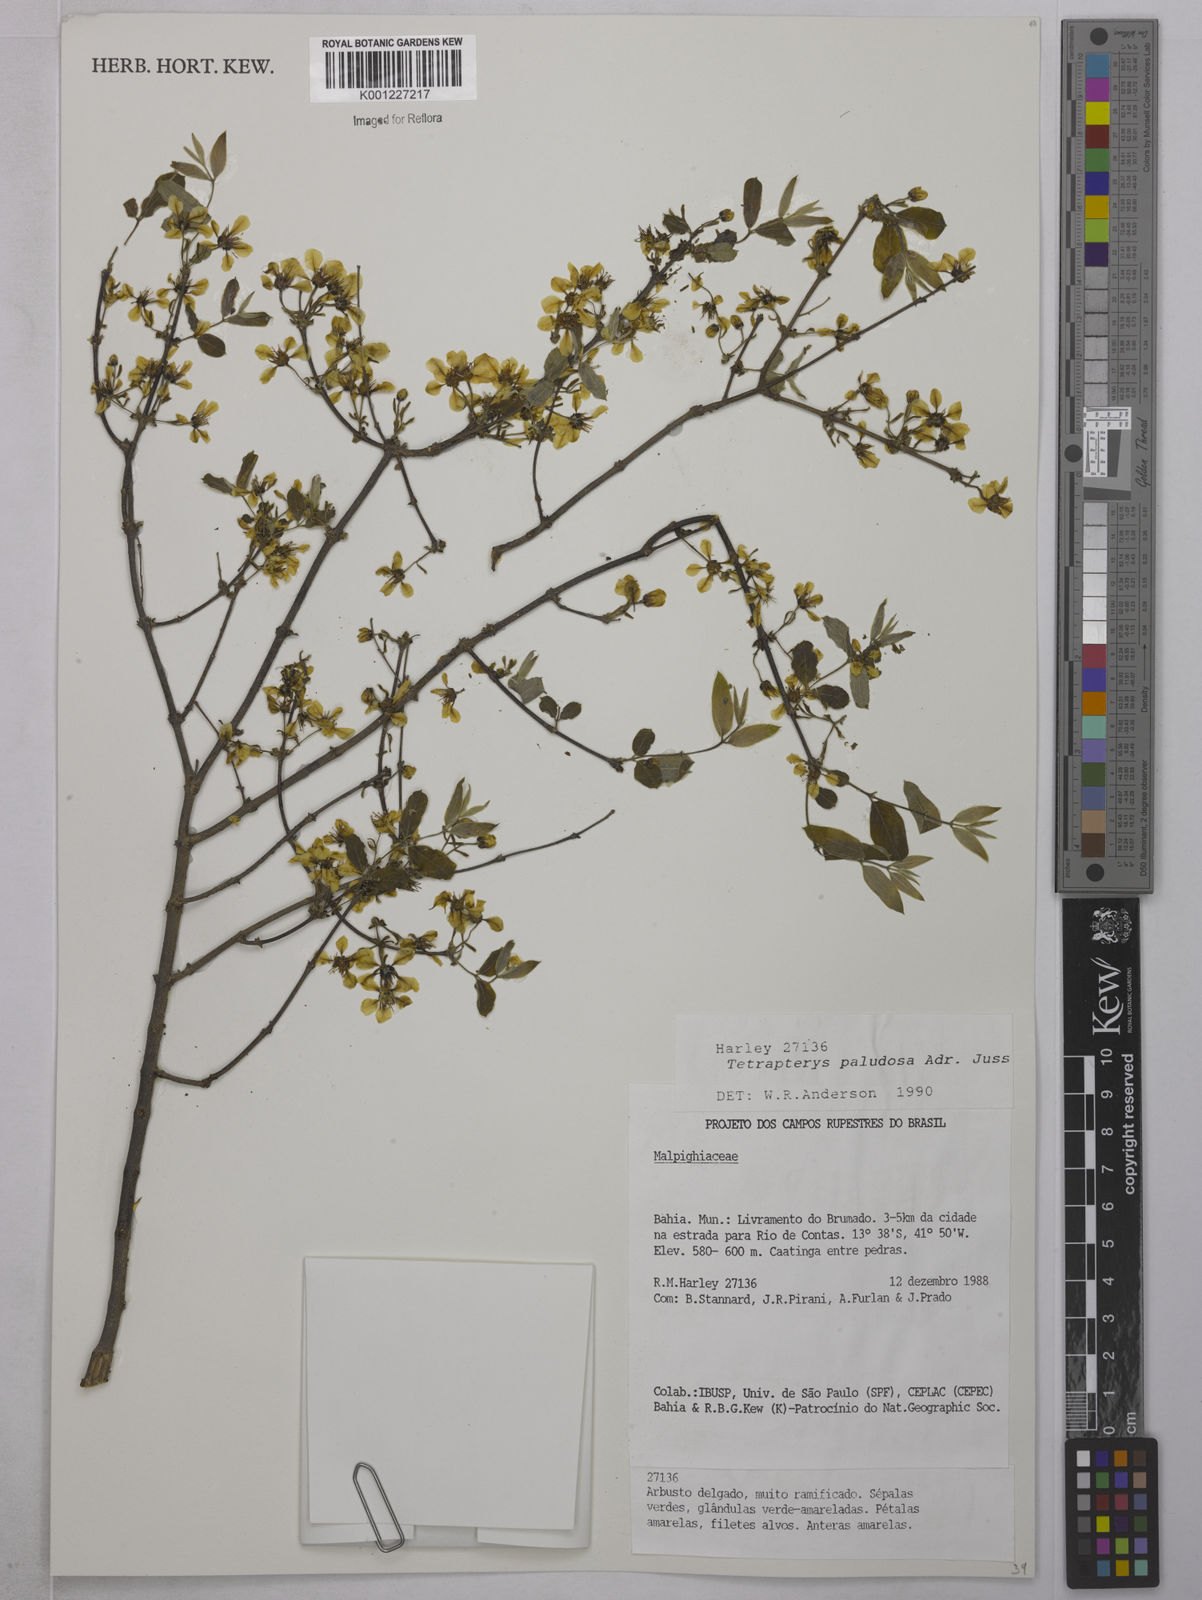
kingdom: Plantae
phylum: Tracheophyta
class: Magnoliopsida
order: Malpighiales
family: Malpighiaceae
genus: Glicophyllum
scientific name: Glicophyllum paludosum
